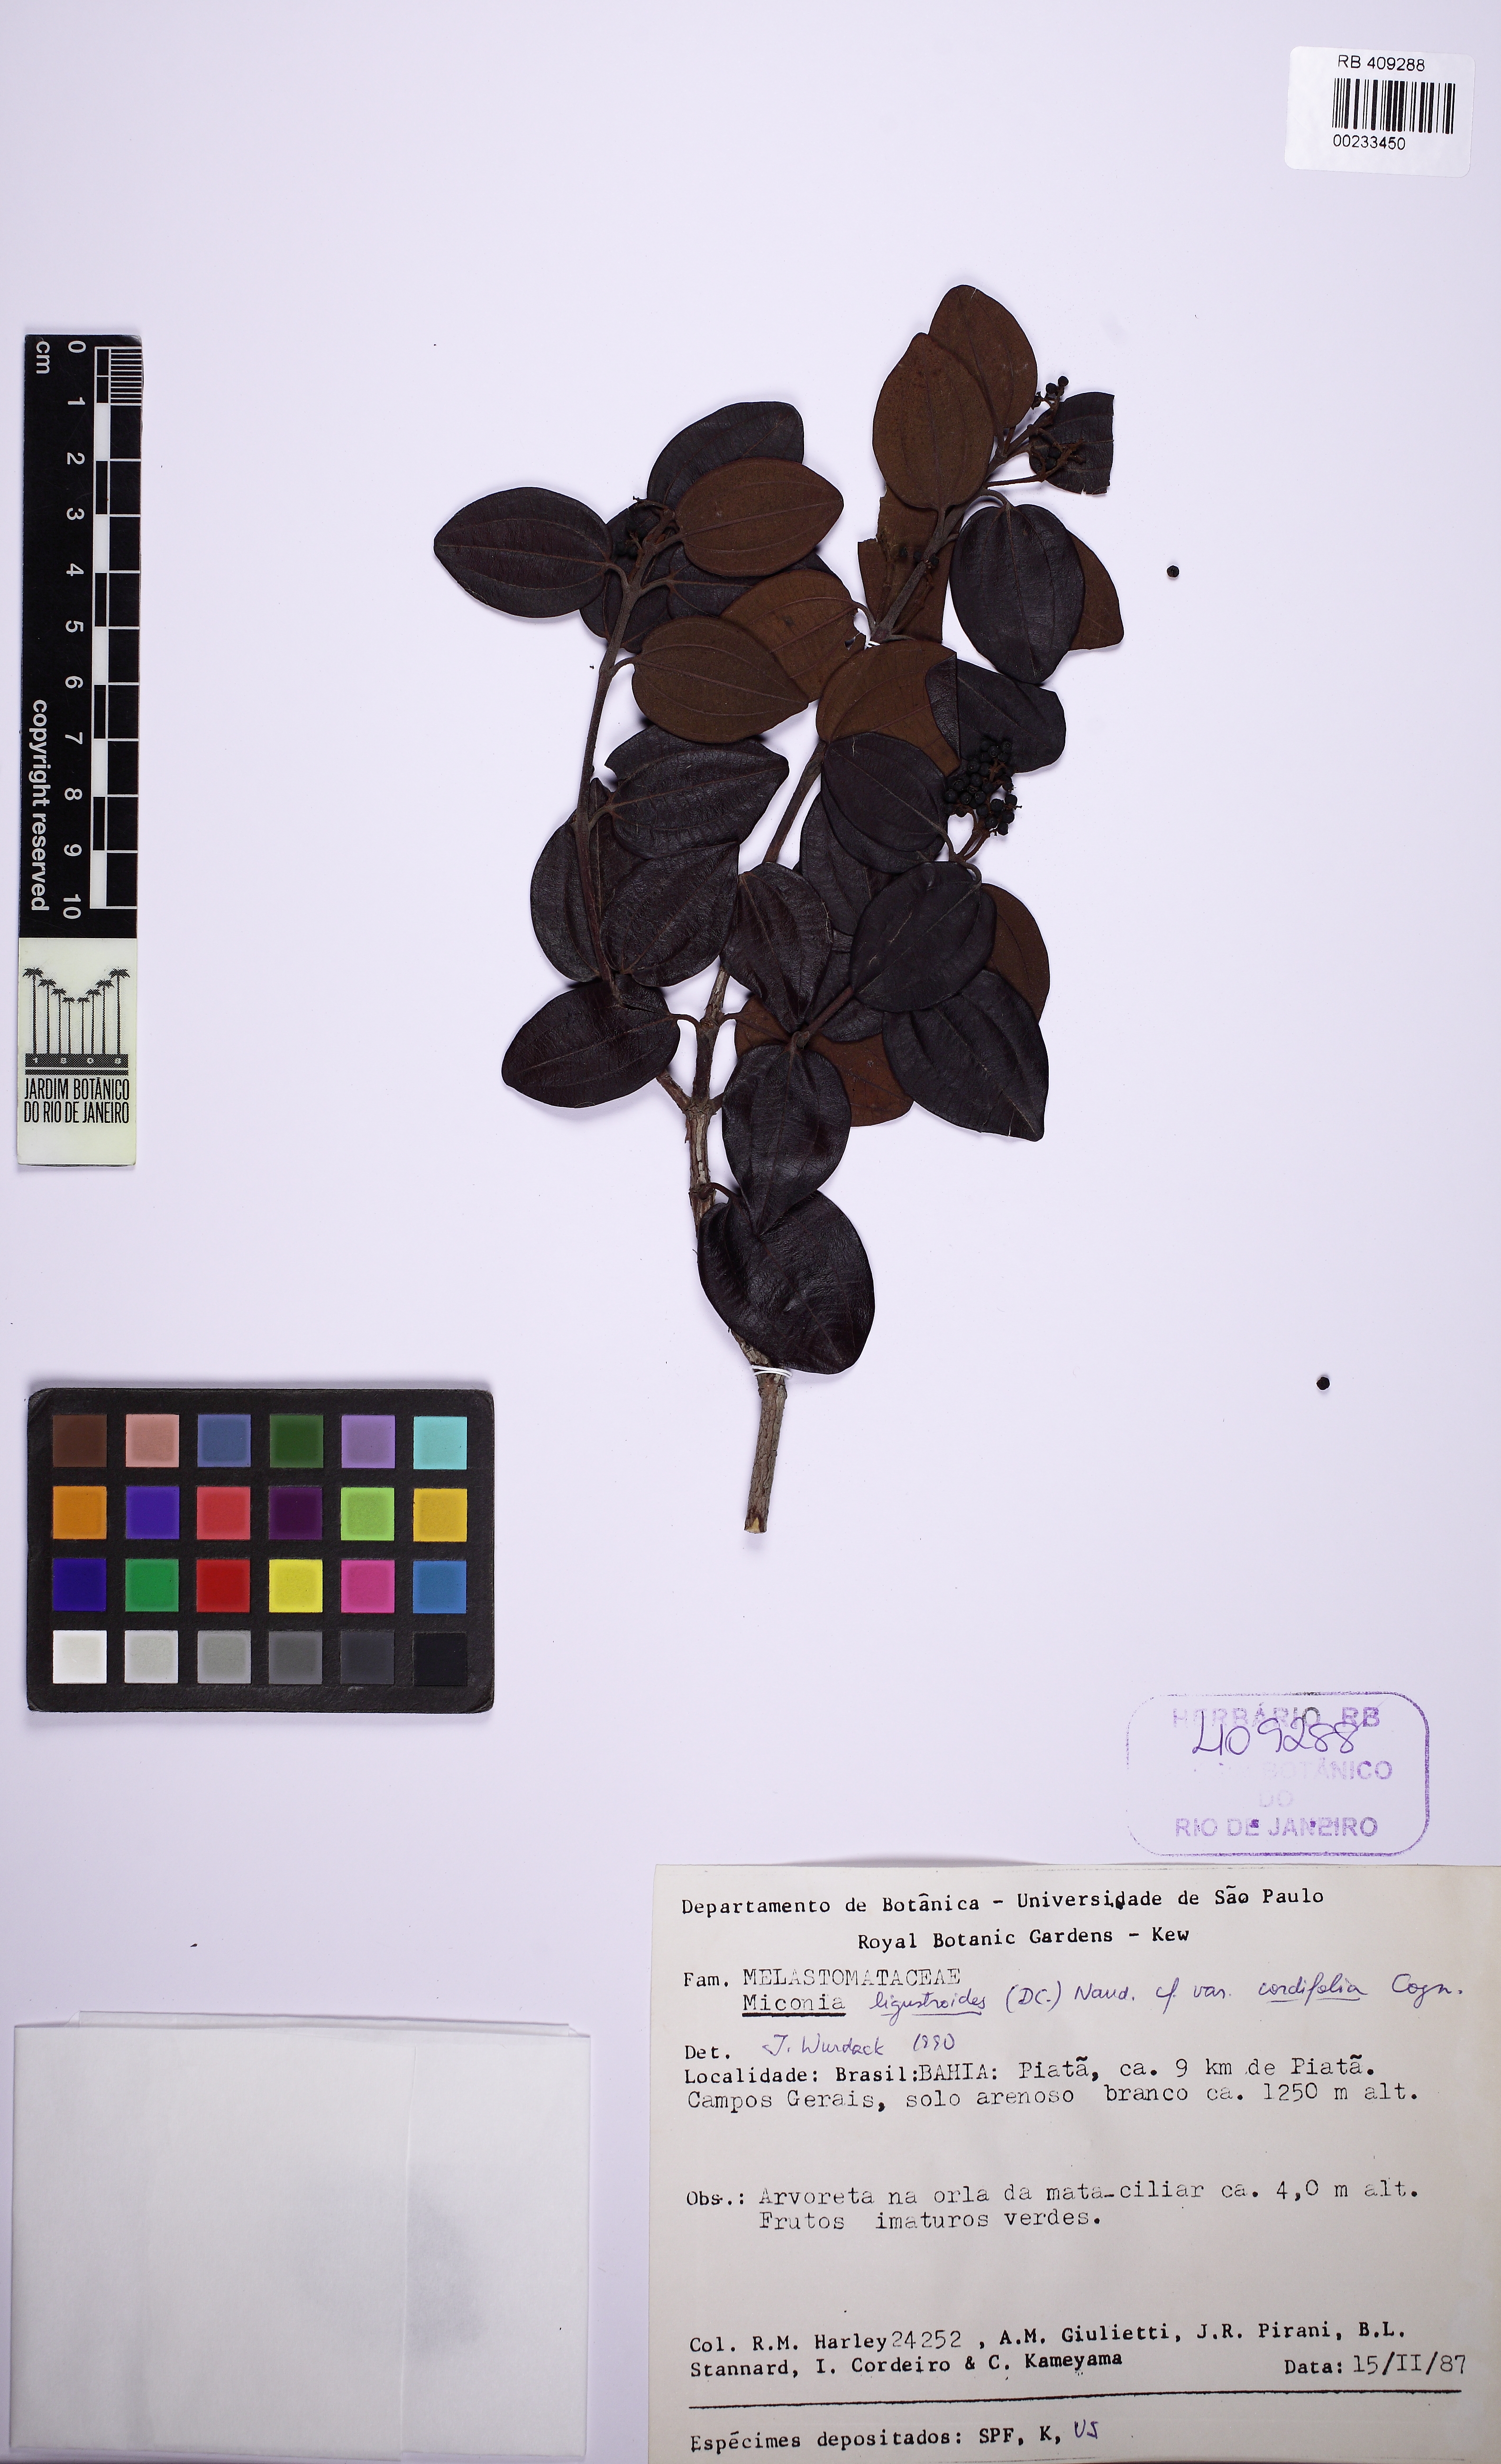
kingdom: Plantae
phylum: Tracheophyta
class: Magnoliopsida
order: Myrtales
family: Melastomataceae
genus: Miconia
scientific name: Miconia ligustroides
